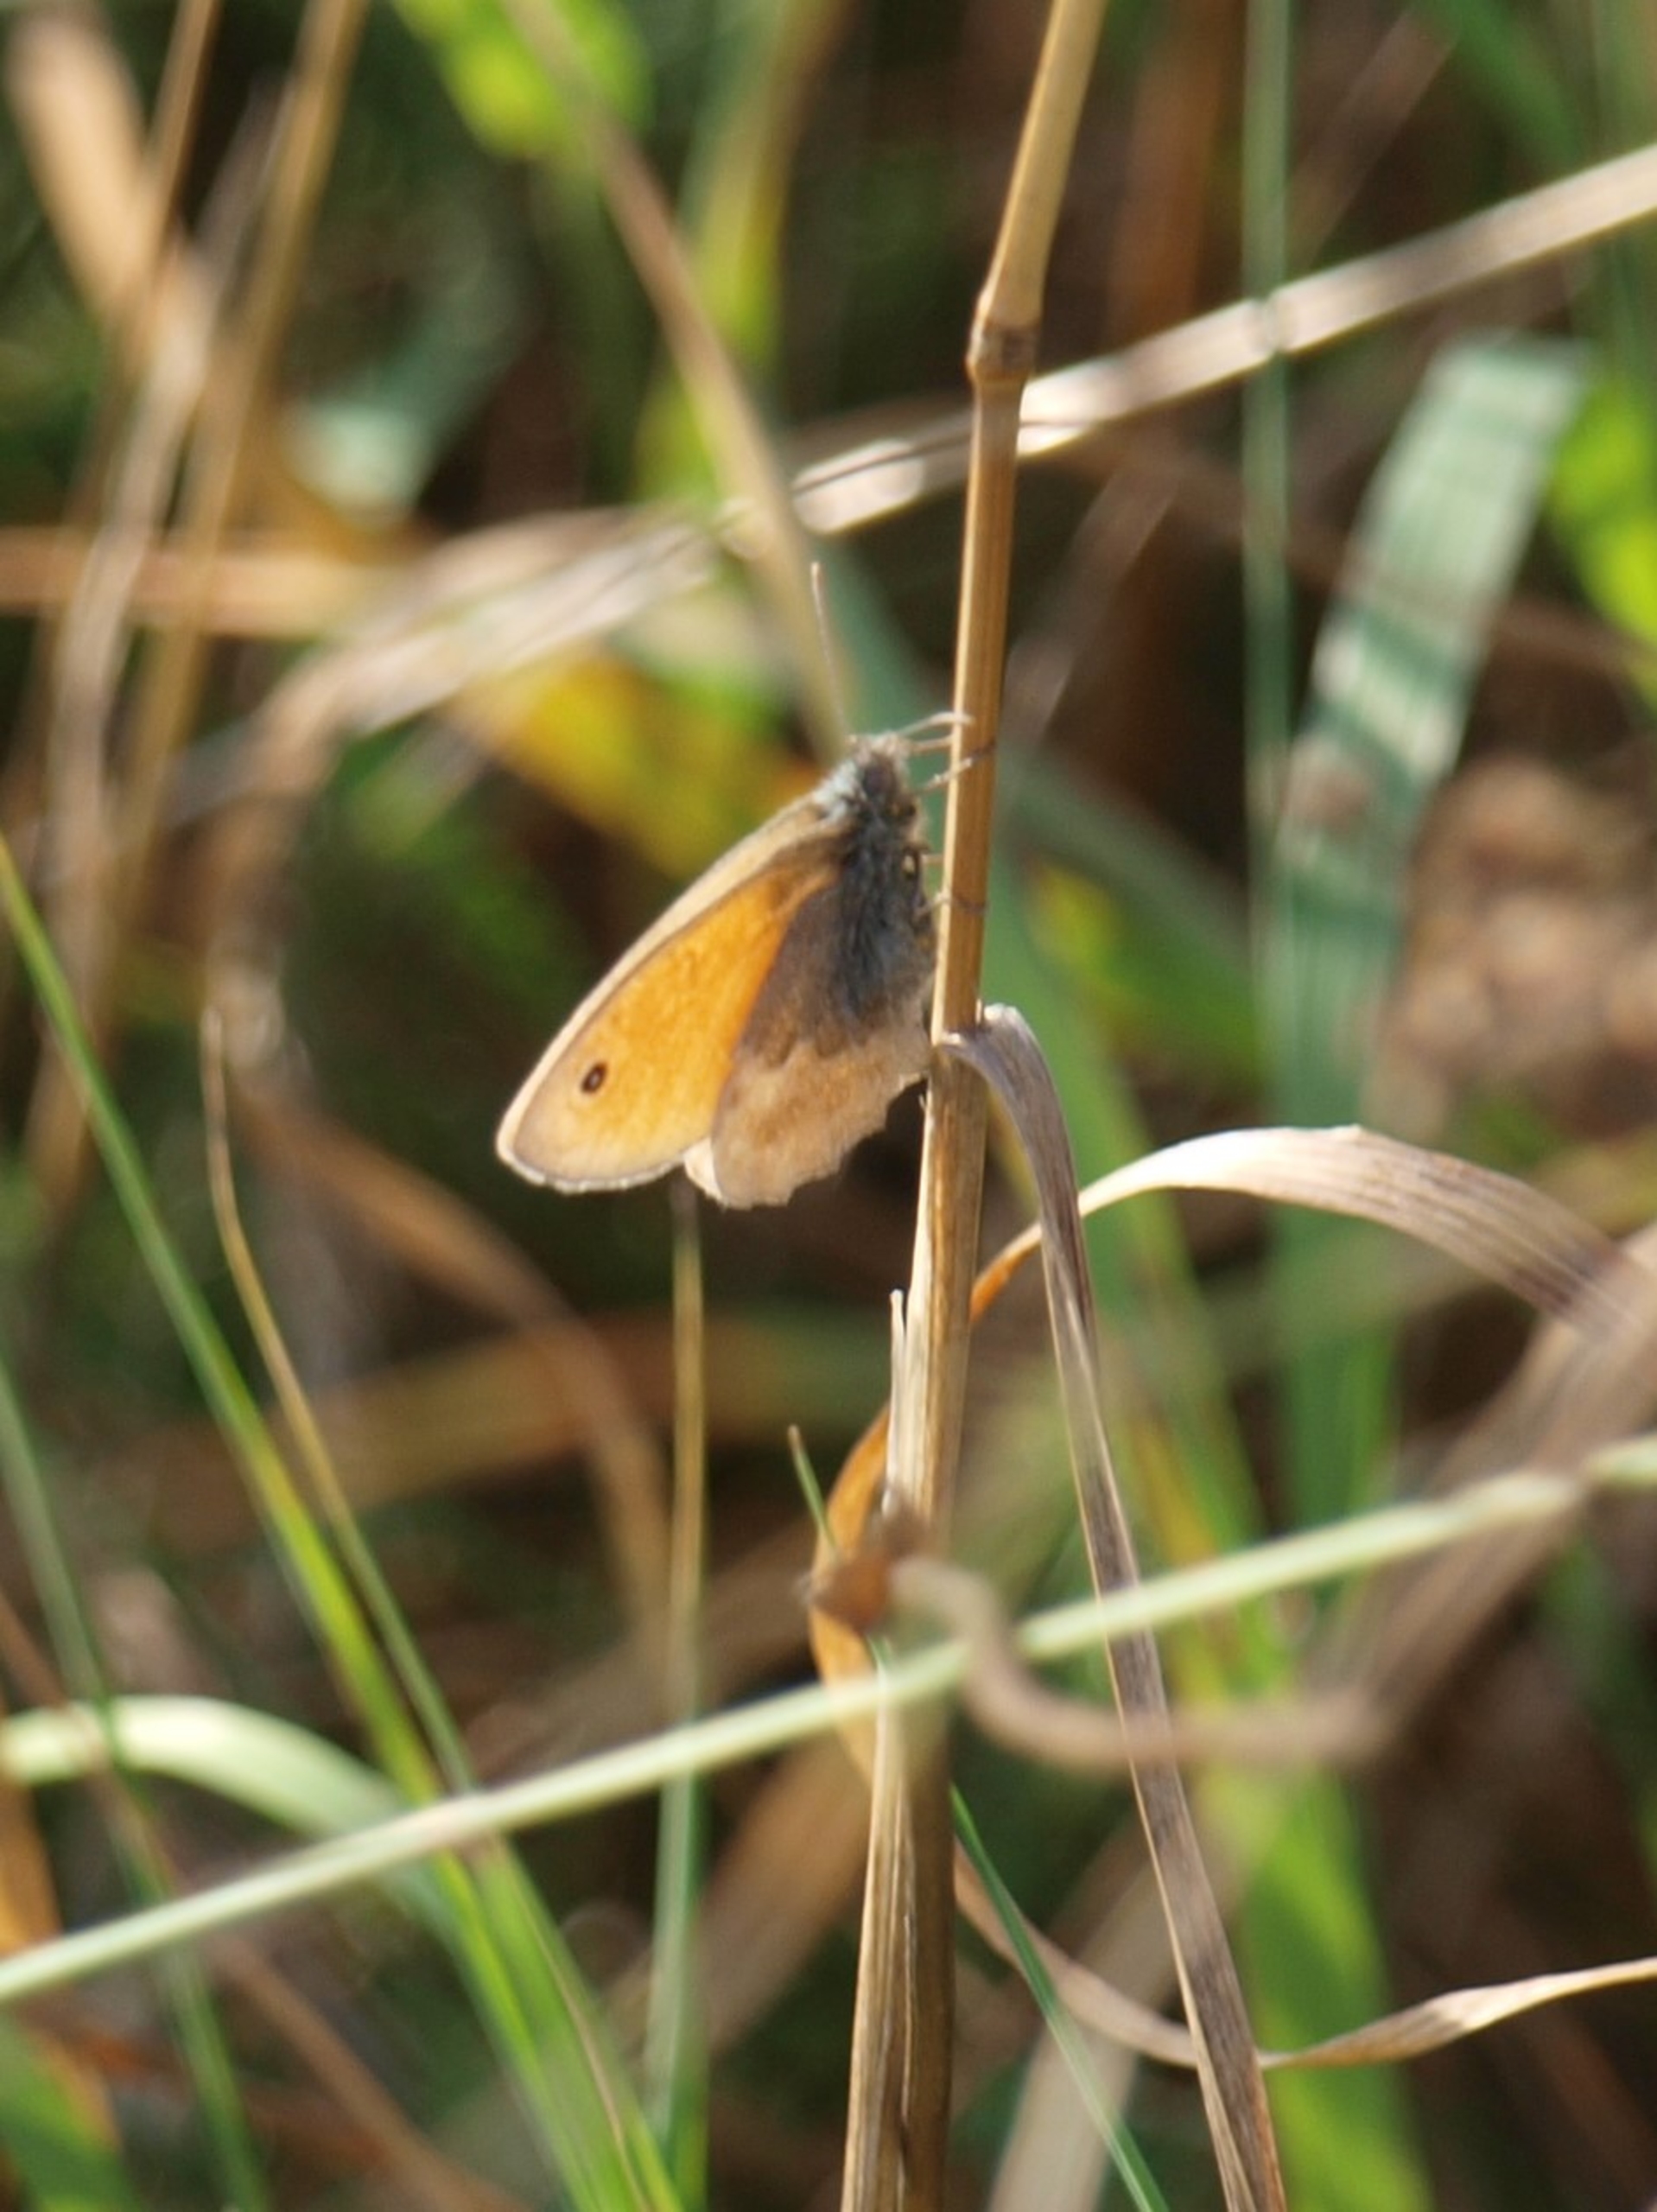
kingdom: Animalia
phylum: Arthropoda
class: Insecta
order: Lepidoptera
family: Nymphalidae
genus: Coenonympha
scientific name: Coenonympha pamphilus
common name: Okkergul randøje
